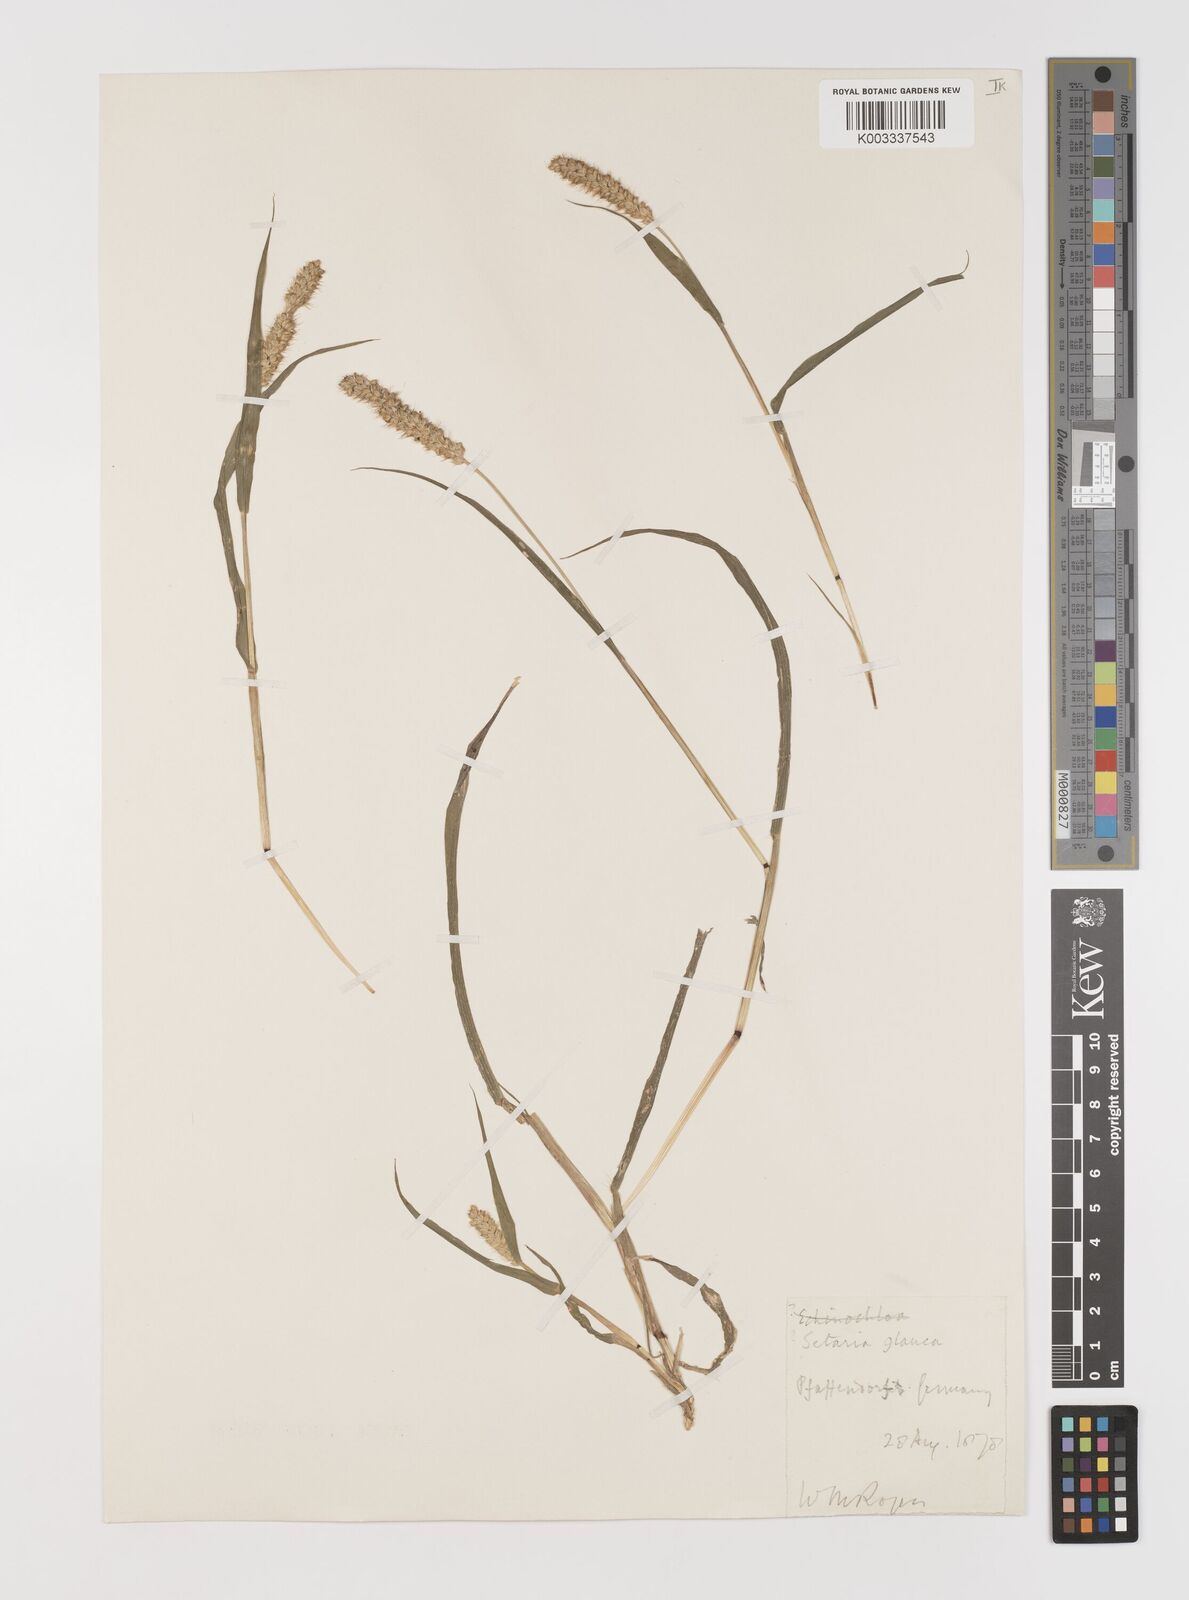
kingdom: Plantae
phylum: Tracheophyta
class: Liliopsida
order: Poales
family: Poaceae
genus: Setaria
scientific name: Setaria pumila
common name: Yellow bristle-grass
